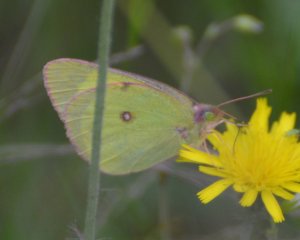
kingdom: Animalia
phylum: Arthropoda
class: Insecta
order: Lepidoptera
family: Pieridae
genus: Colias
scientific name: Colias interior
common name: Pink-edged Sulphur
